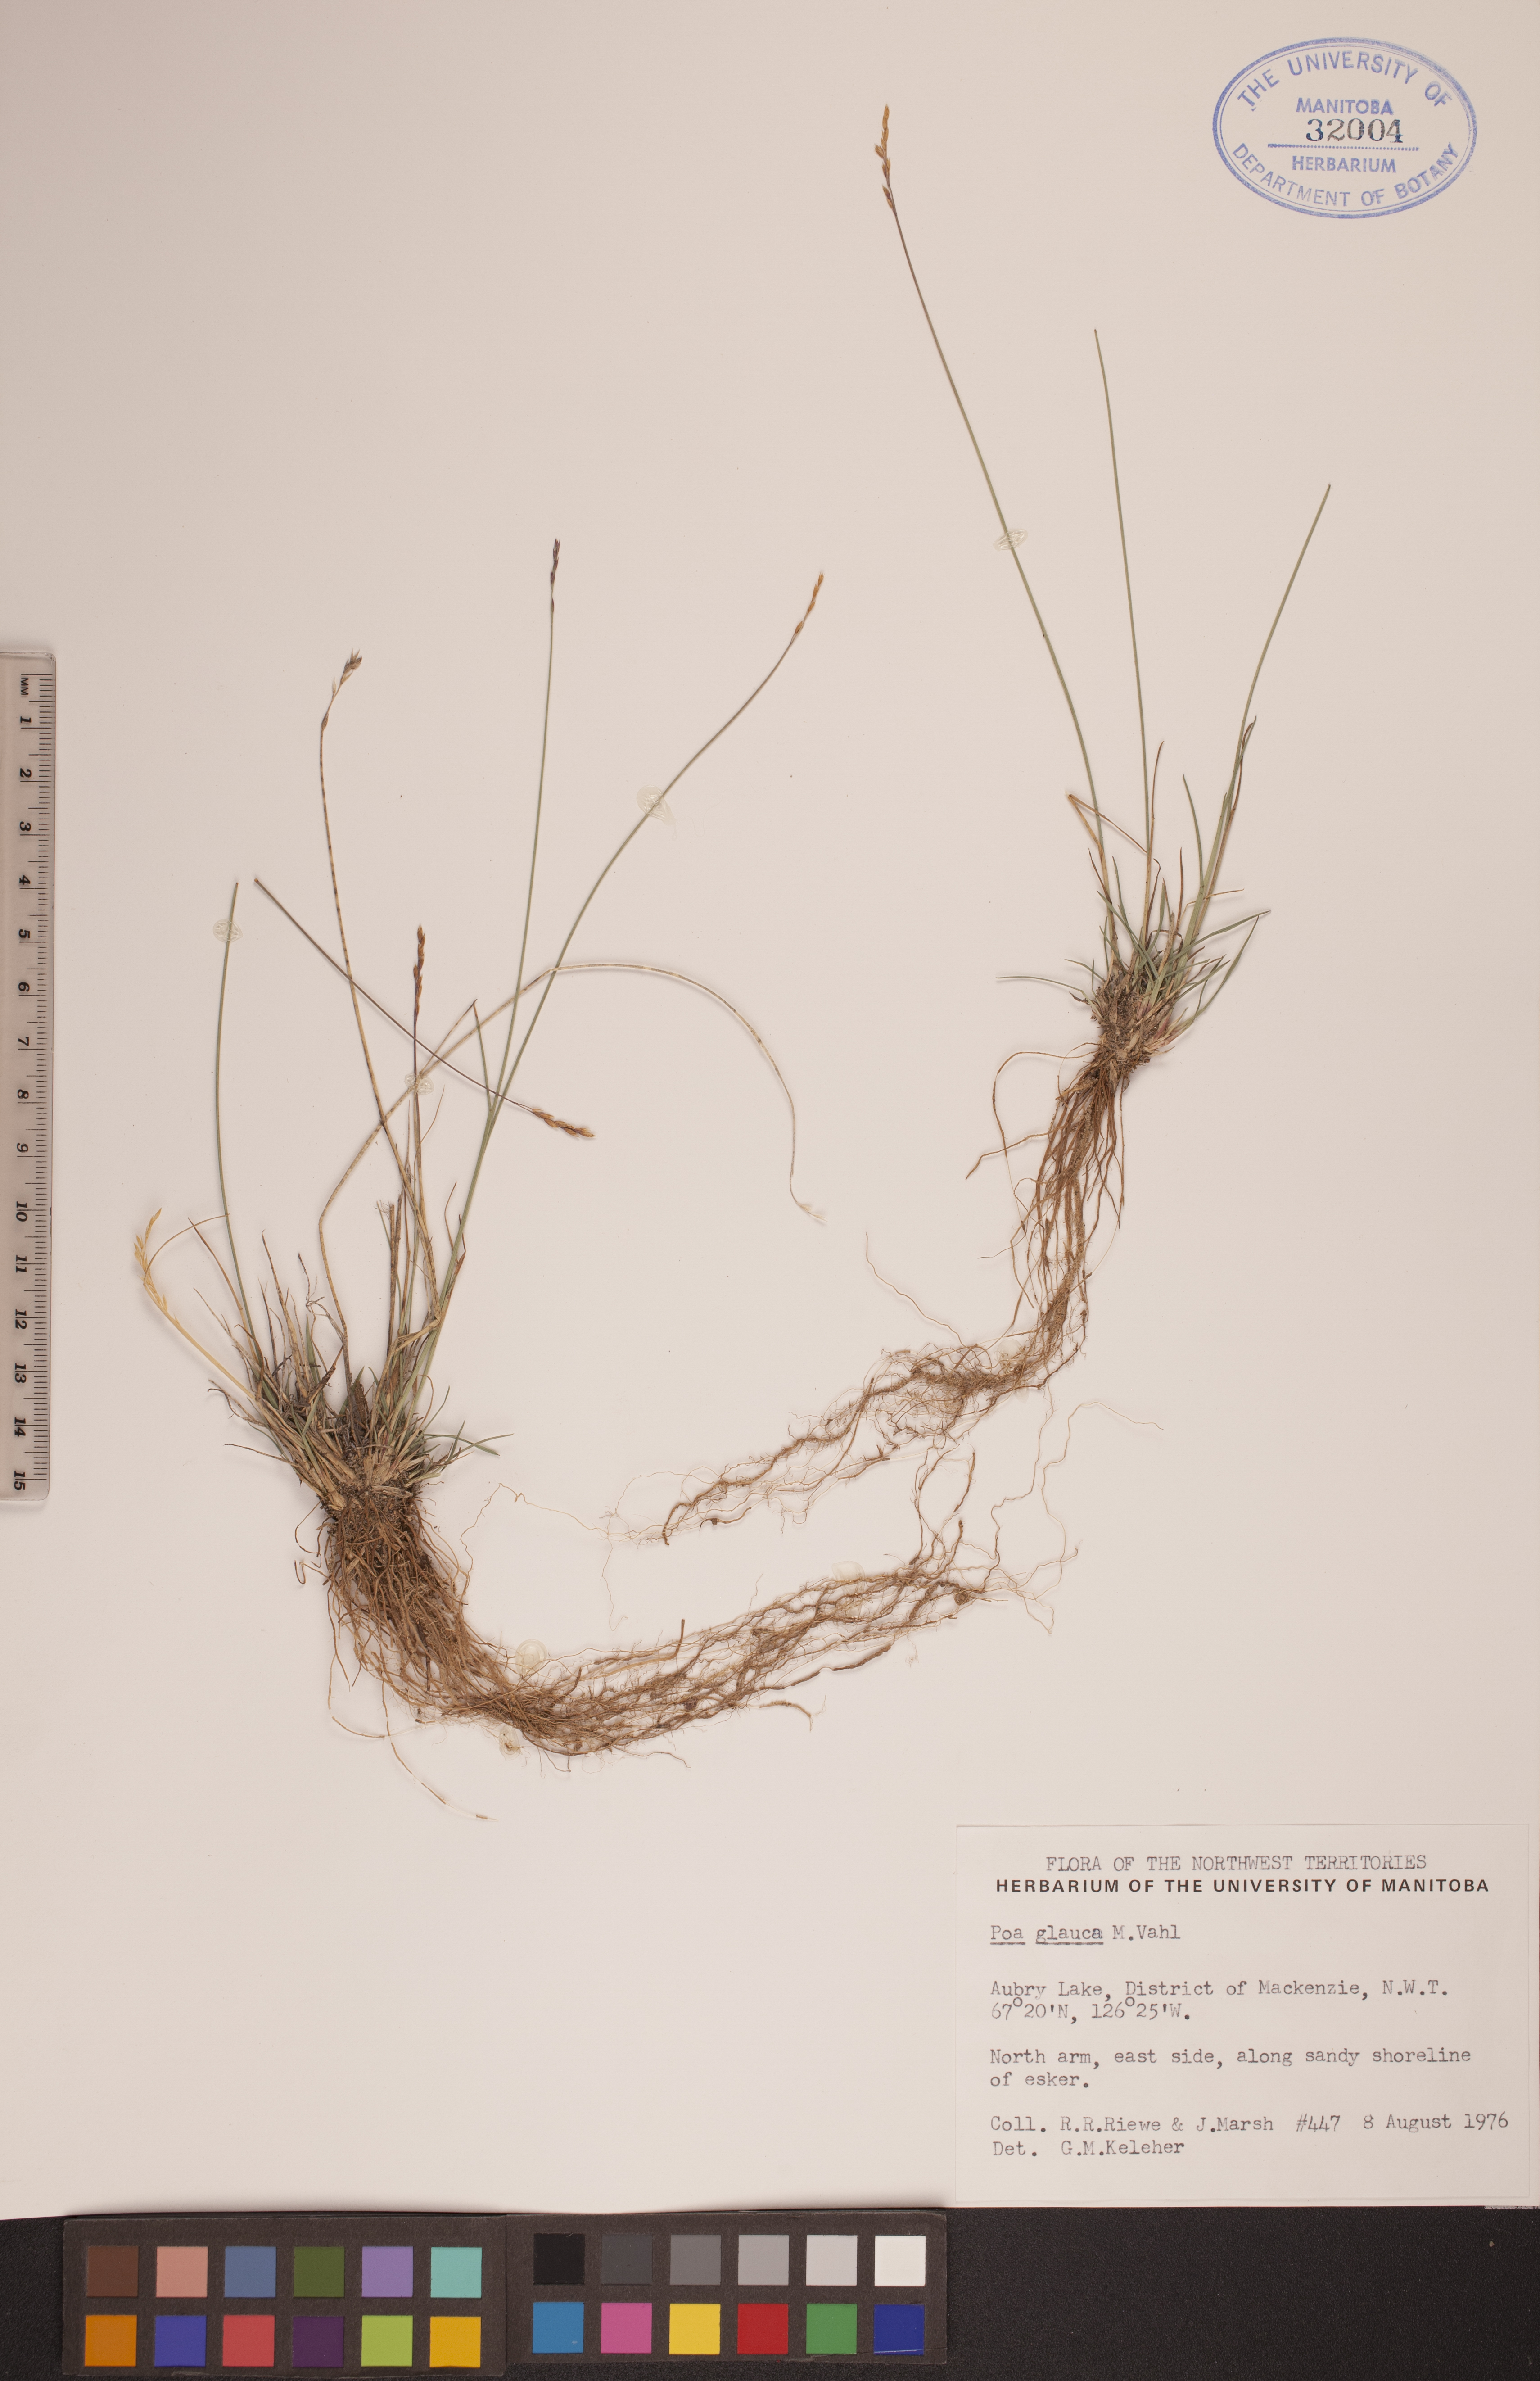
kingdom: Plantae
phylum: Tracheophyta
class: Liliopsida
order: Poales
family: Poaceae
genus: Poa
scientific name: Poa glauca
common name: Glaucous bluegrass
